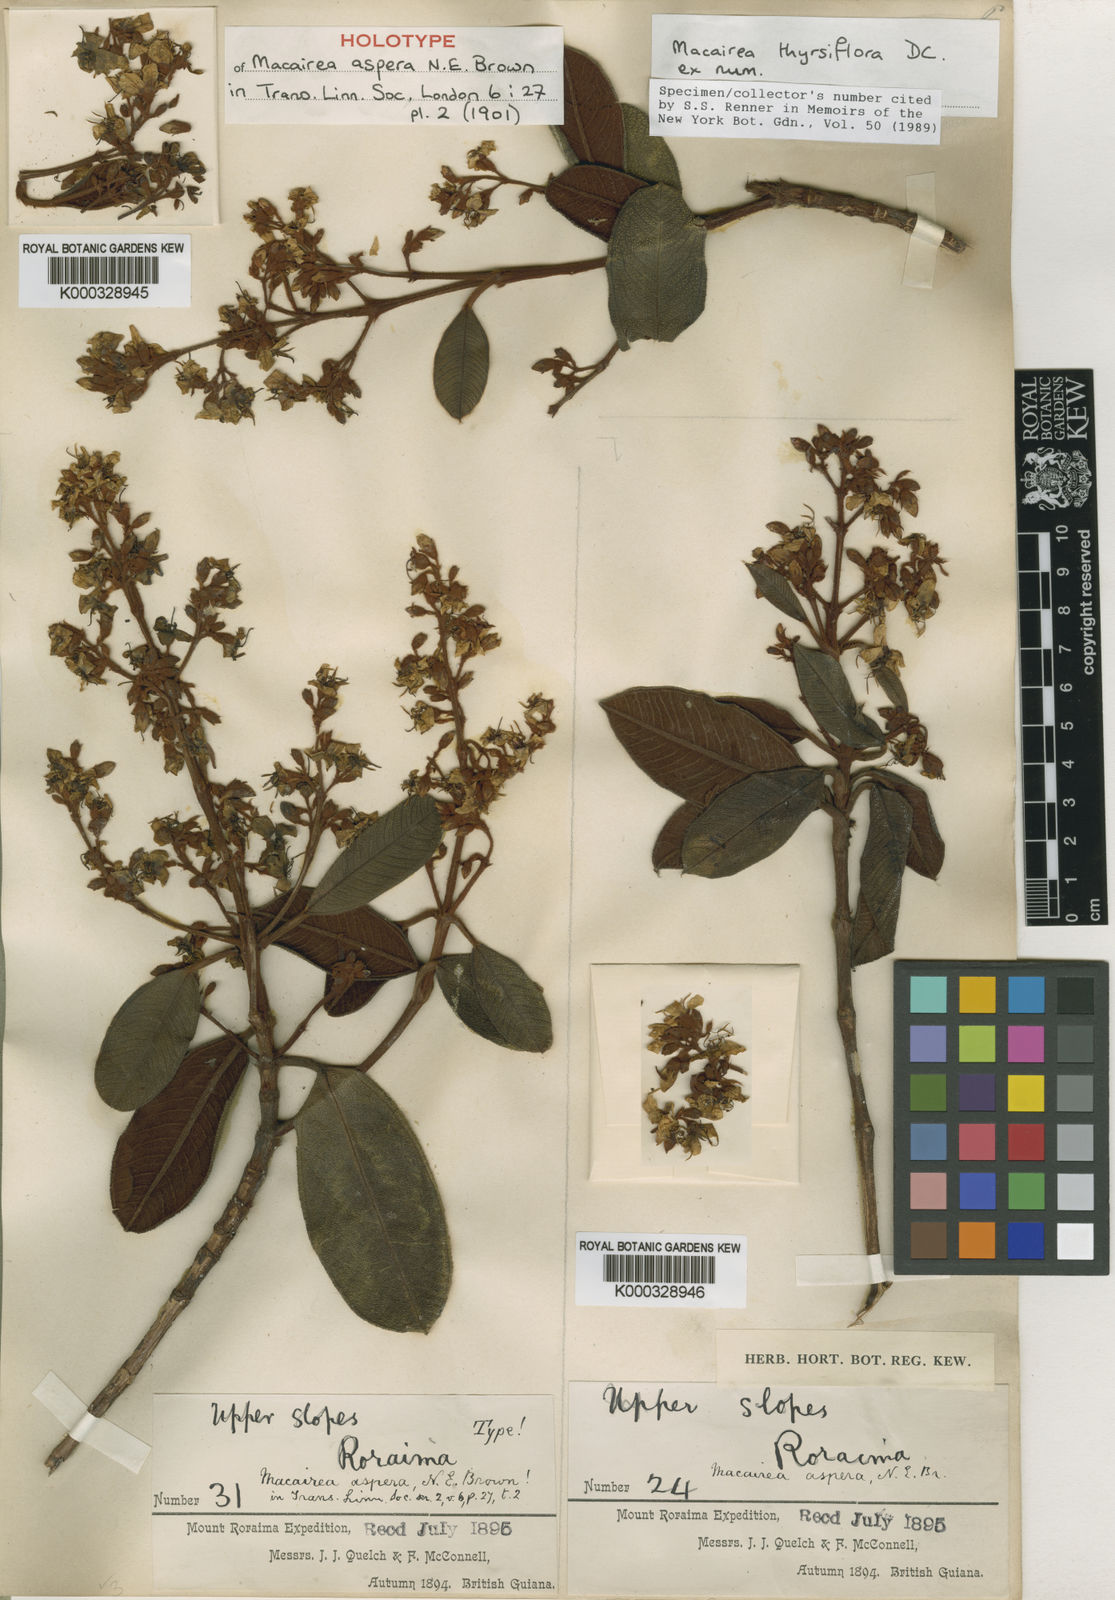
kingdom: Plantae
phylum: Tracheophyta
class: Magnoliopsida
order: Myrtales
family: Melastomataceae
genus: Macairea
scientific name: Macairea thyrsiflora
